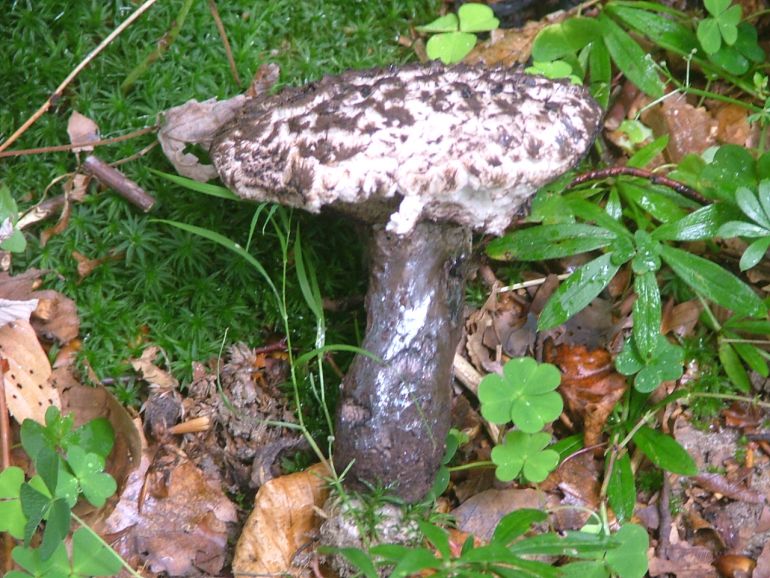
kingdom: Fungi
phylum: Basidiomycota
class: Agaricomycetes
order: Boletales
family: Boletaceae
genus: Strobilomyces
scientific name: Strobilomyces strobilaceus
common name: koglerørhat
